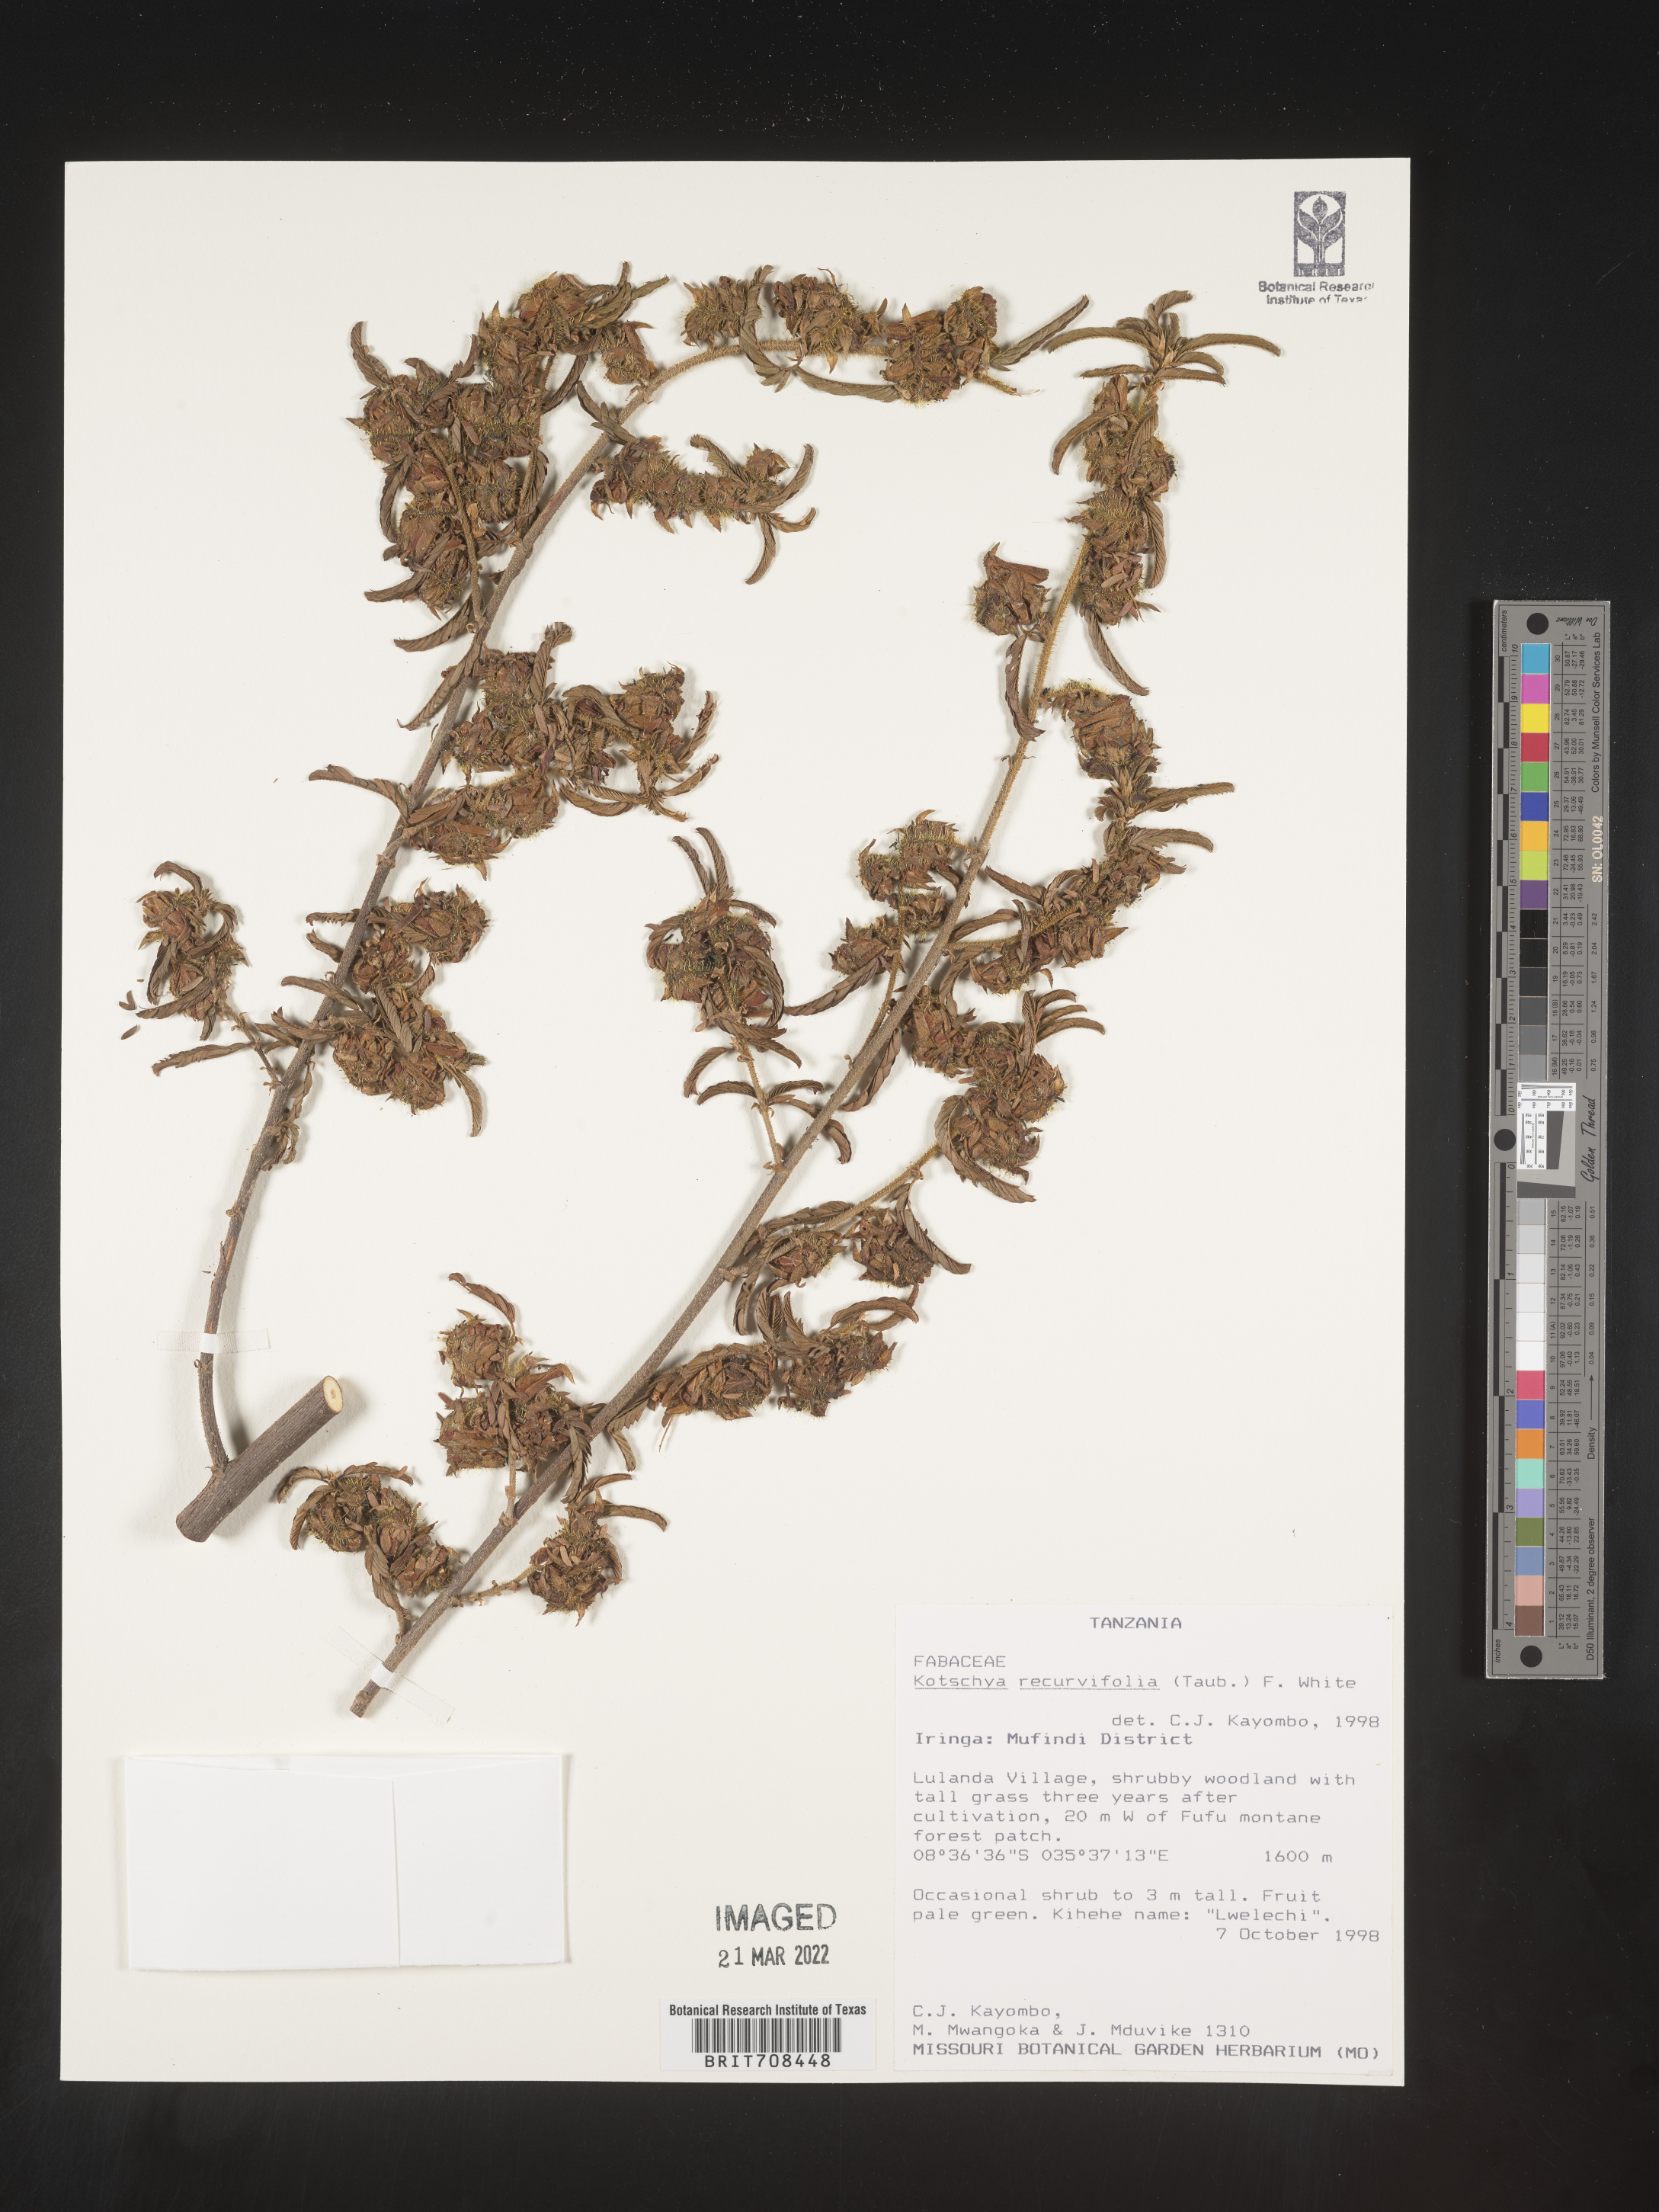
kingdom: Plantae
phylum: Tracheophyta
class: Magnoliopsida
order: Fabales
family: Fabaceae
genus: Kotschya
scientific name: Kotschya
